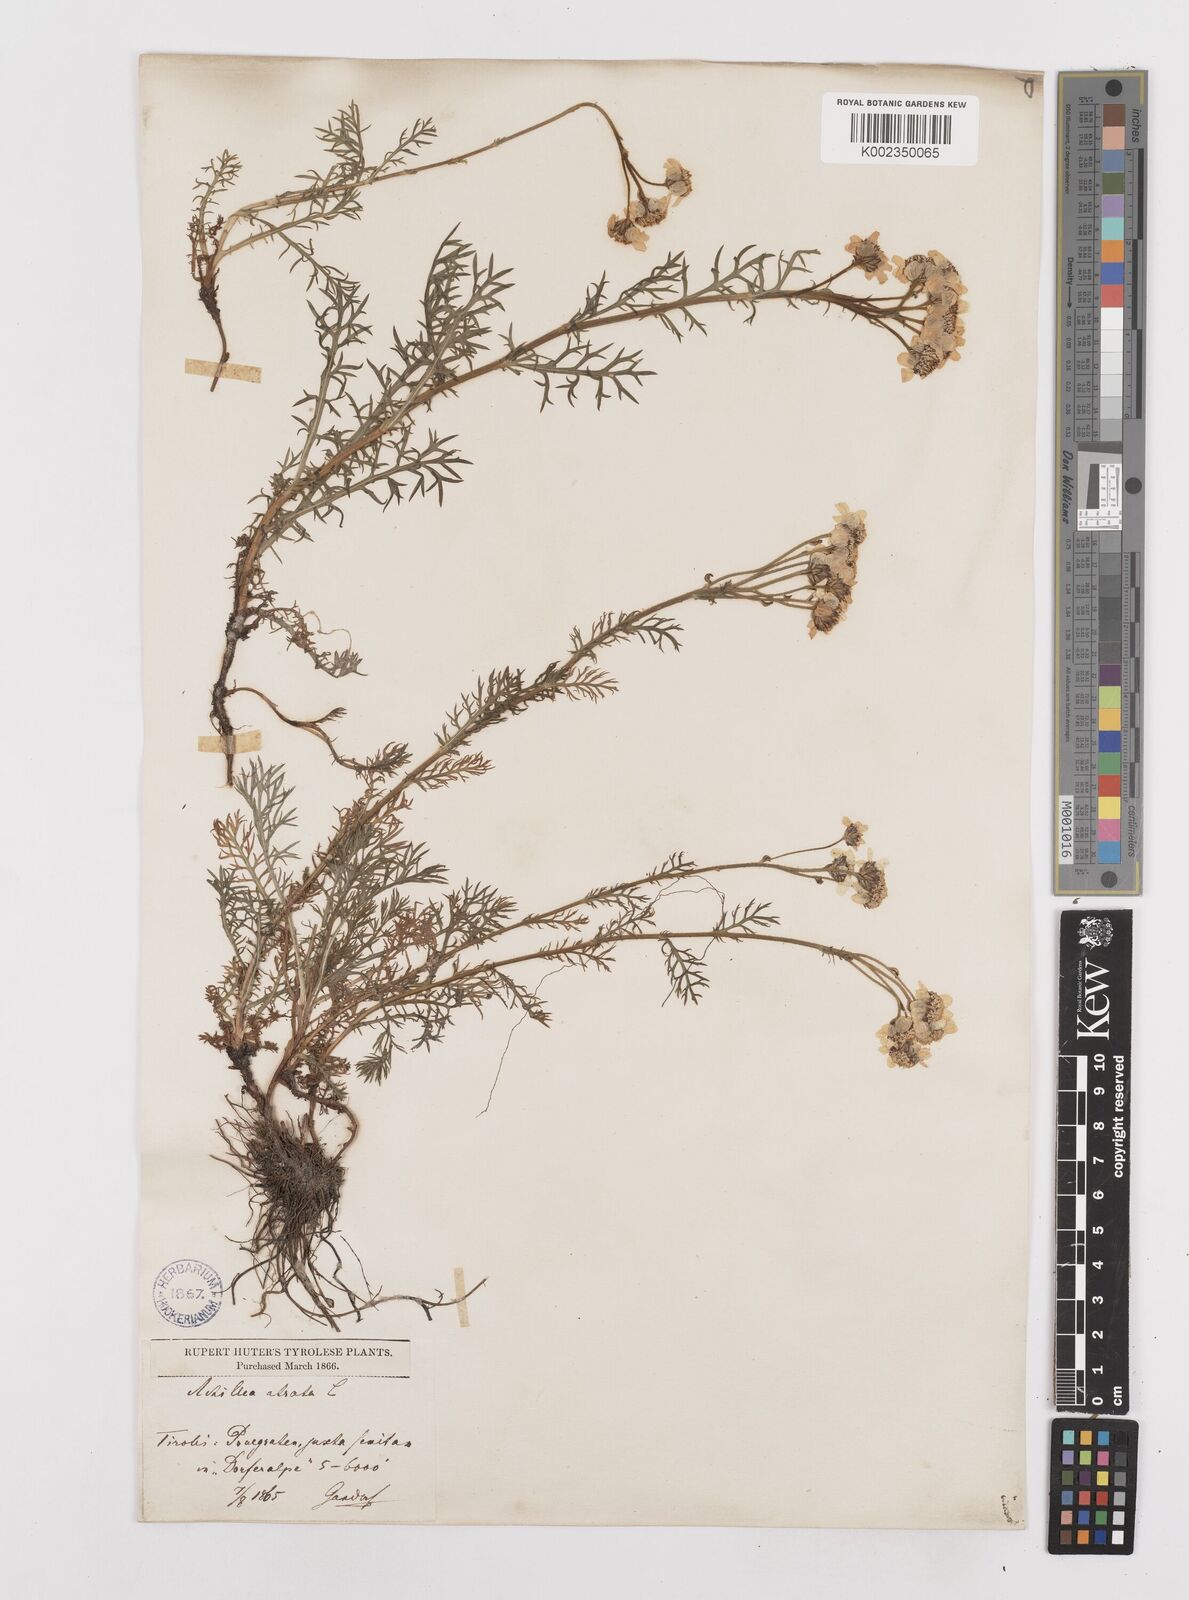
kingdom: Plantae
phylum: Tracheophyta
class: Magnoliopsida
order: Asterales
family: Asteraceae
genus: Achillea
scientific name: Achillea atrata
